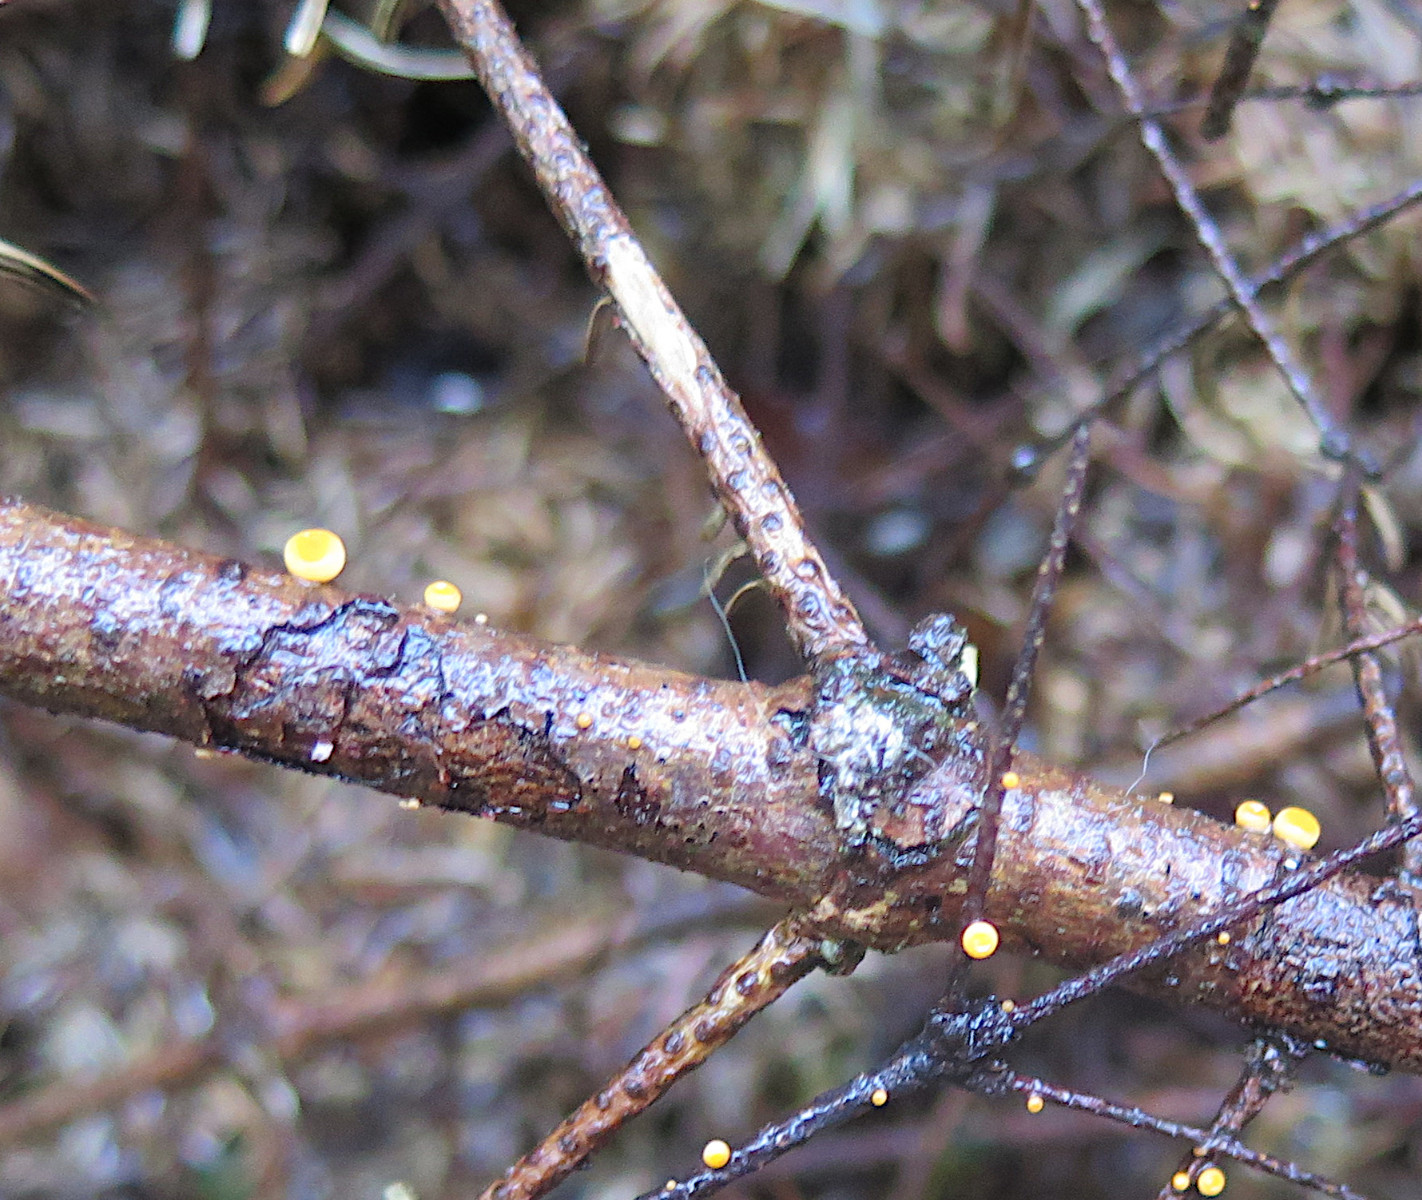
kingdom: Fungi
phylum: Ascomycota
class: Pezizomycetes
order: Pezizales
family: Sarcoscyphaceae
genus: Pithya
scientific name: Pithya vulgaris
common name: stor dukatbæger
